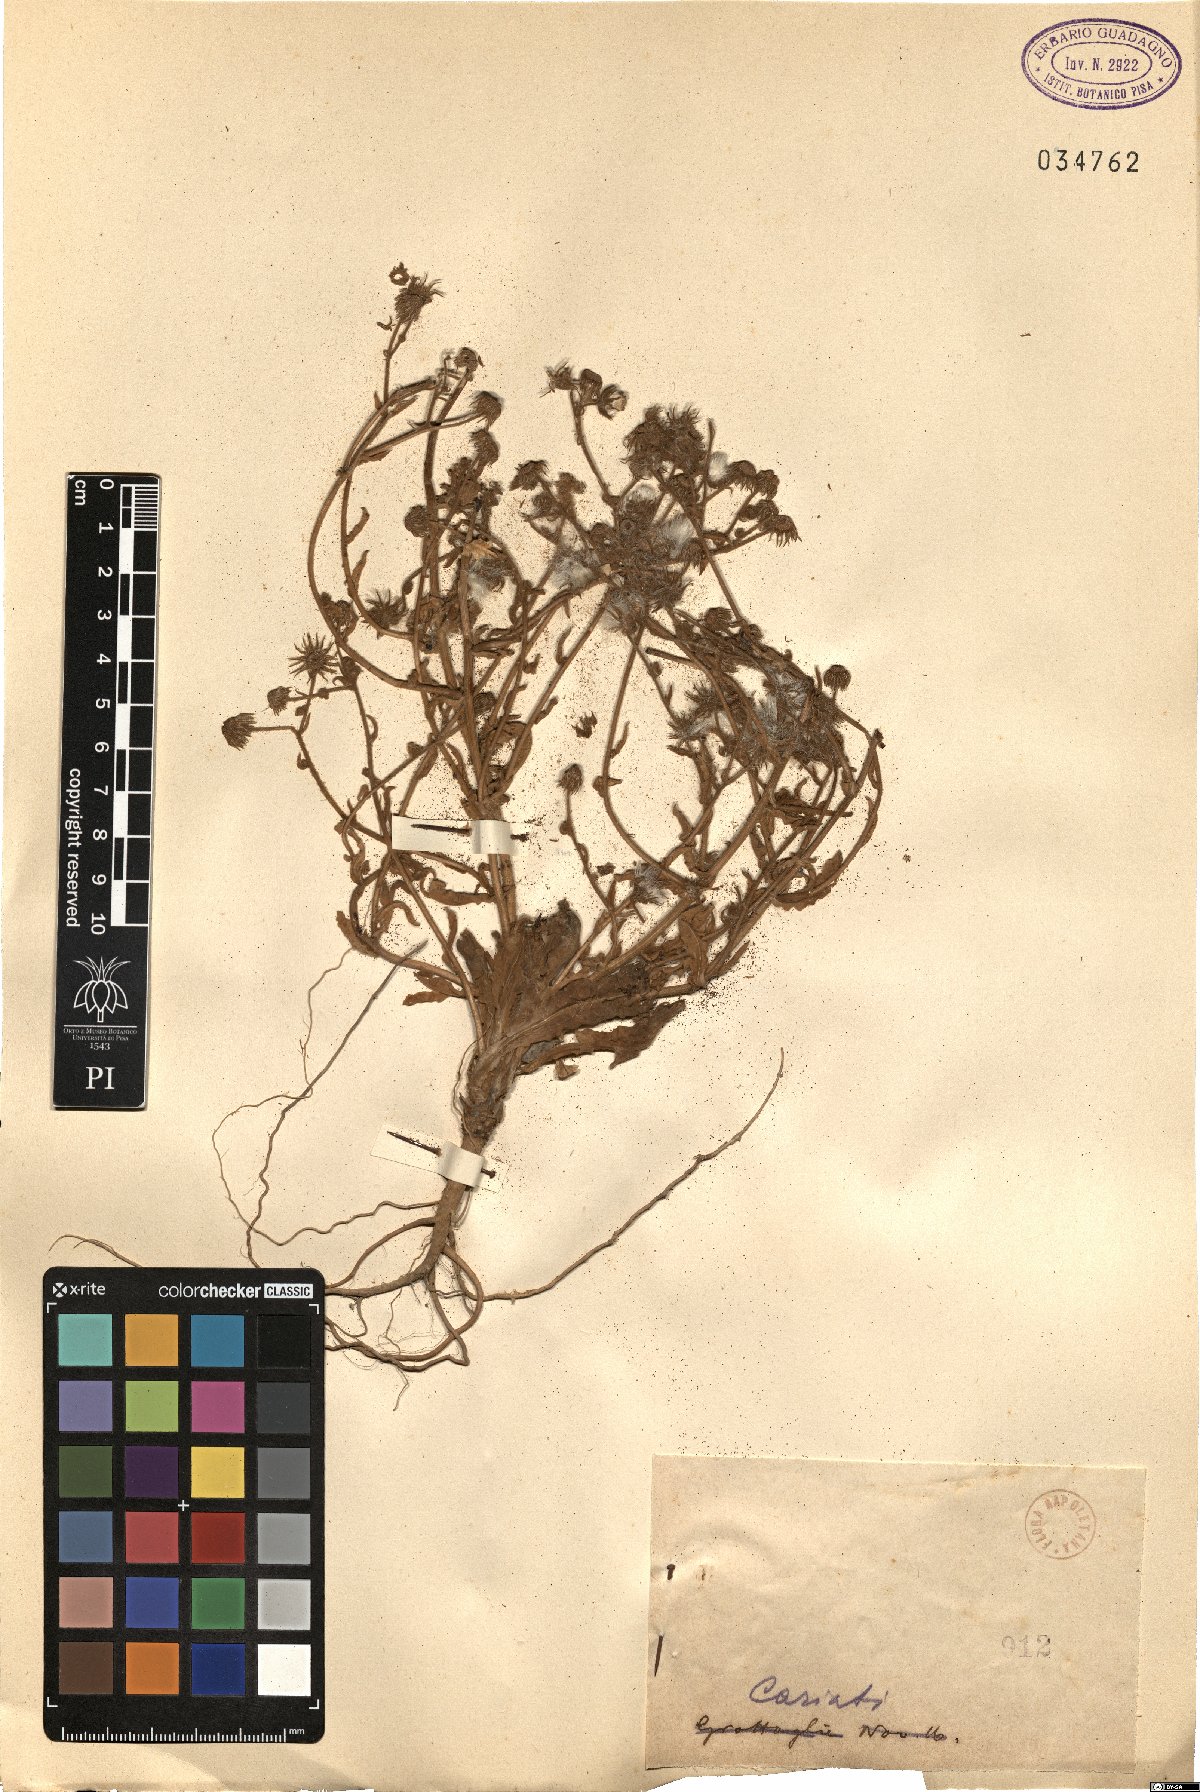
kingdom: Plantae
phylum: Tracheophyta
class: Magnoliopsida
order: Asterales
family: Asteraceae
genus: Andryala
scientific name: Andryala
